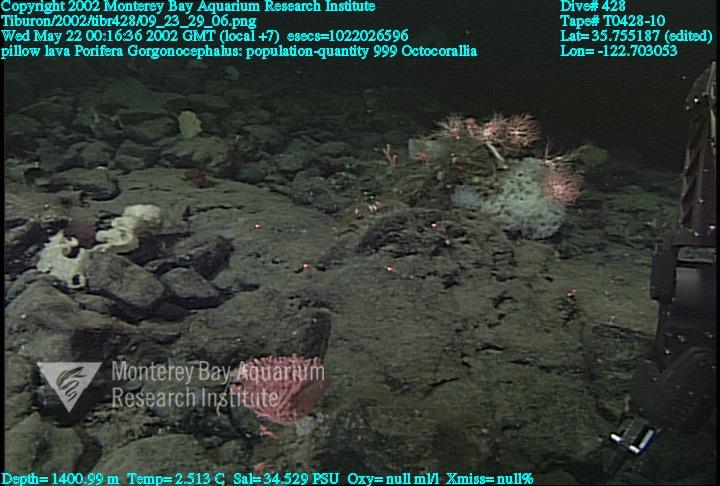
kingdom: Animalia
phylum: Porifera
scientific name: Porifera
